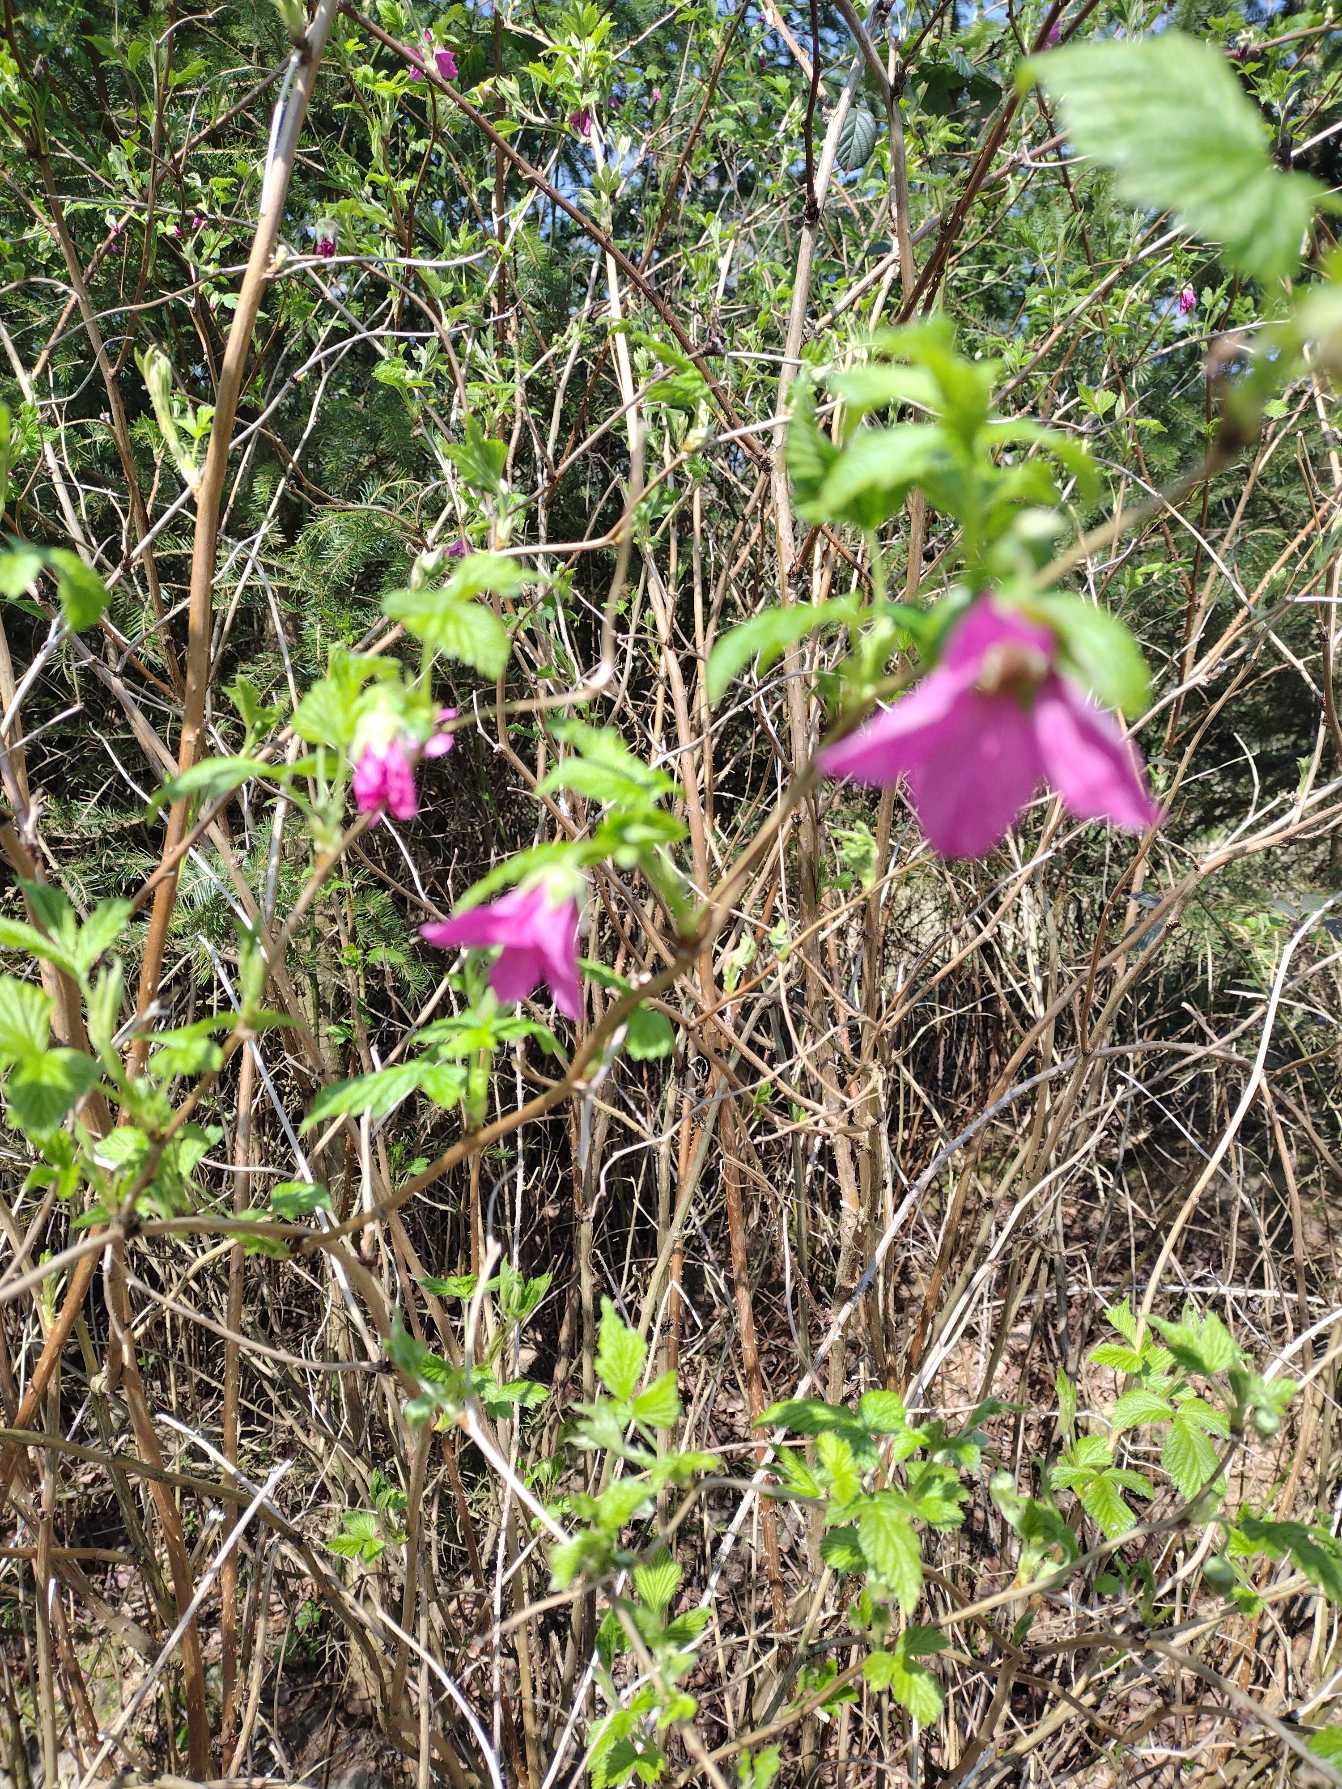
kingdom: Plantae
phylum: Tracheophyta
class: Magnoliopsida
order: Rosales
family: Rosaceae
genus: Rubus
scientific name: Rubus spectabilis
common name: Laksebær
